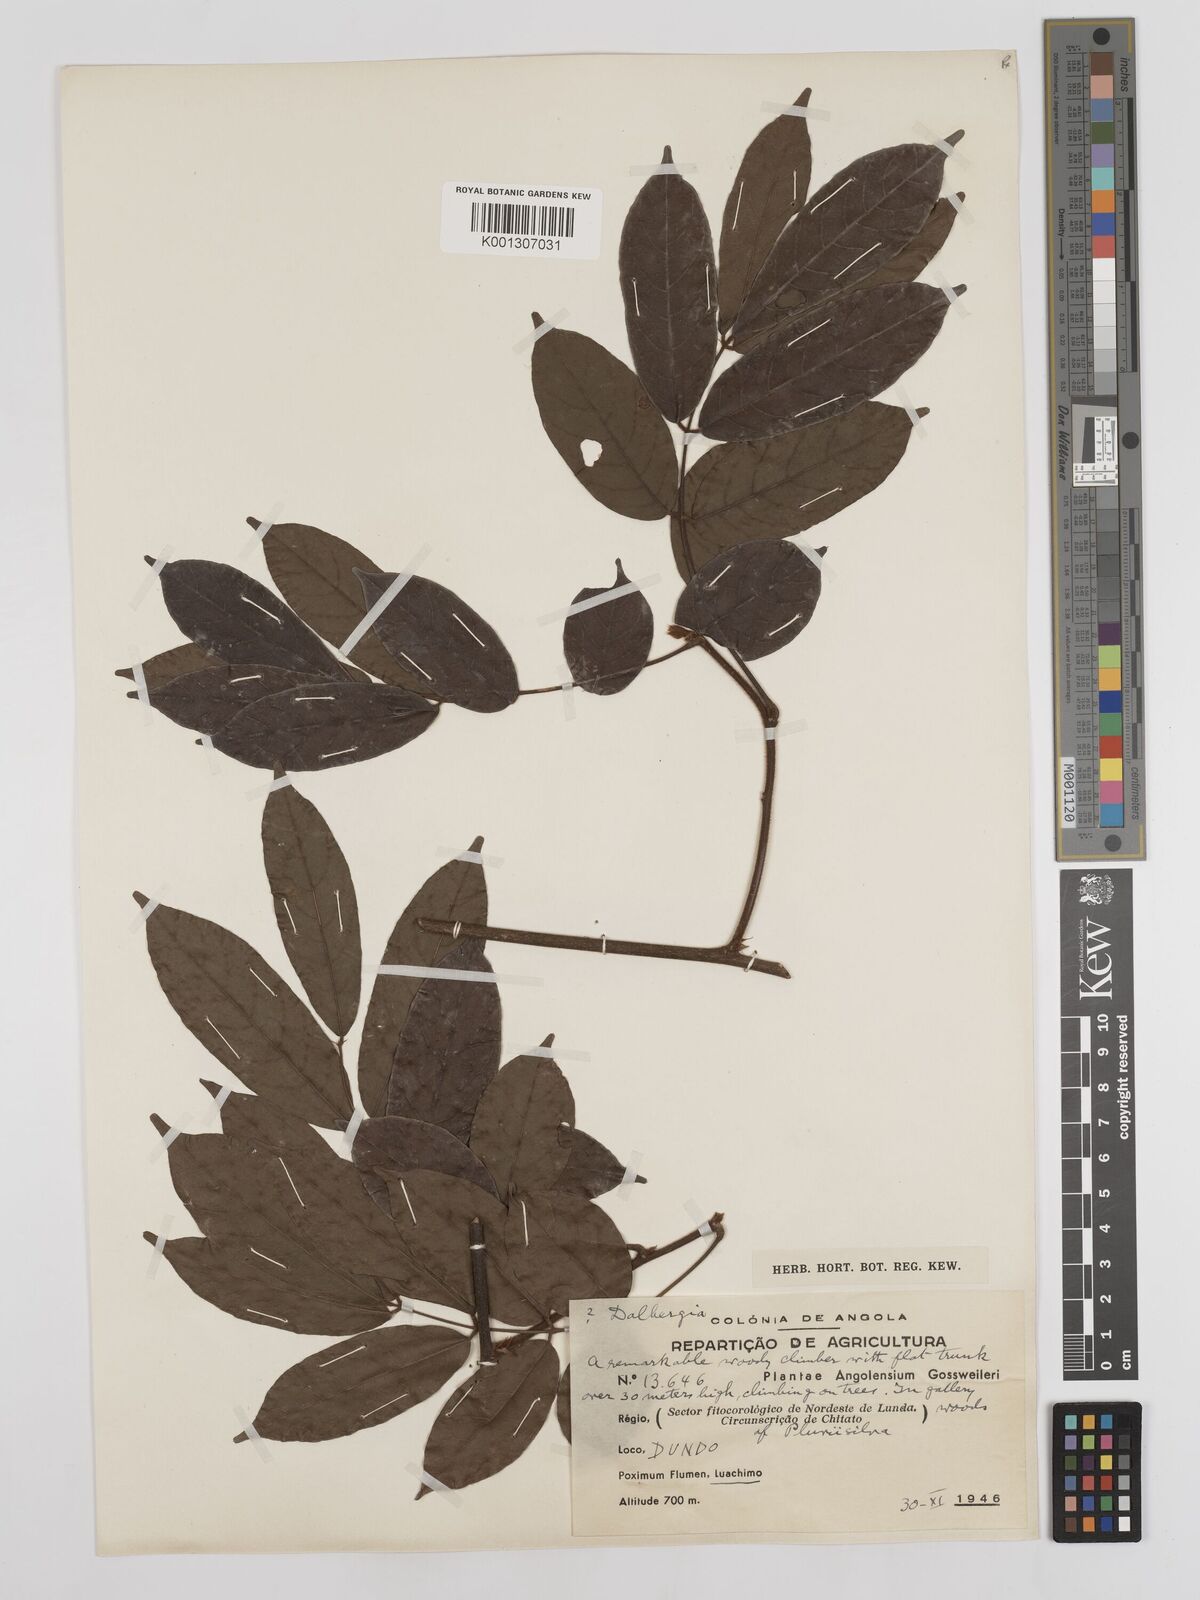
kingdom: Plantae
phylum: Tracheophyta
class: Magnoliopsida
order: Fabales
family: Fabaceae
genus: Millettia
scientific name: Millettia
